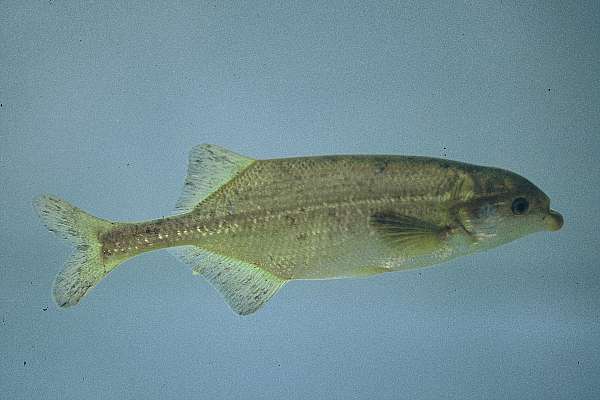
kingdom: Animalia
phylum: Chordata
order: Osteoglossiformes
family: Mormyridae
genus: Marcusenius
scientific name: Marcusenius macrolepidotus
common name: Bulldog
